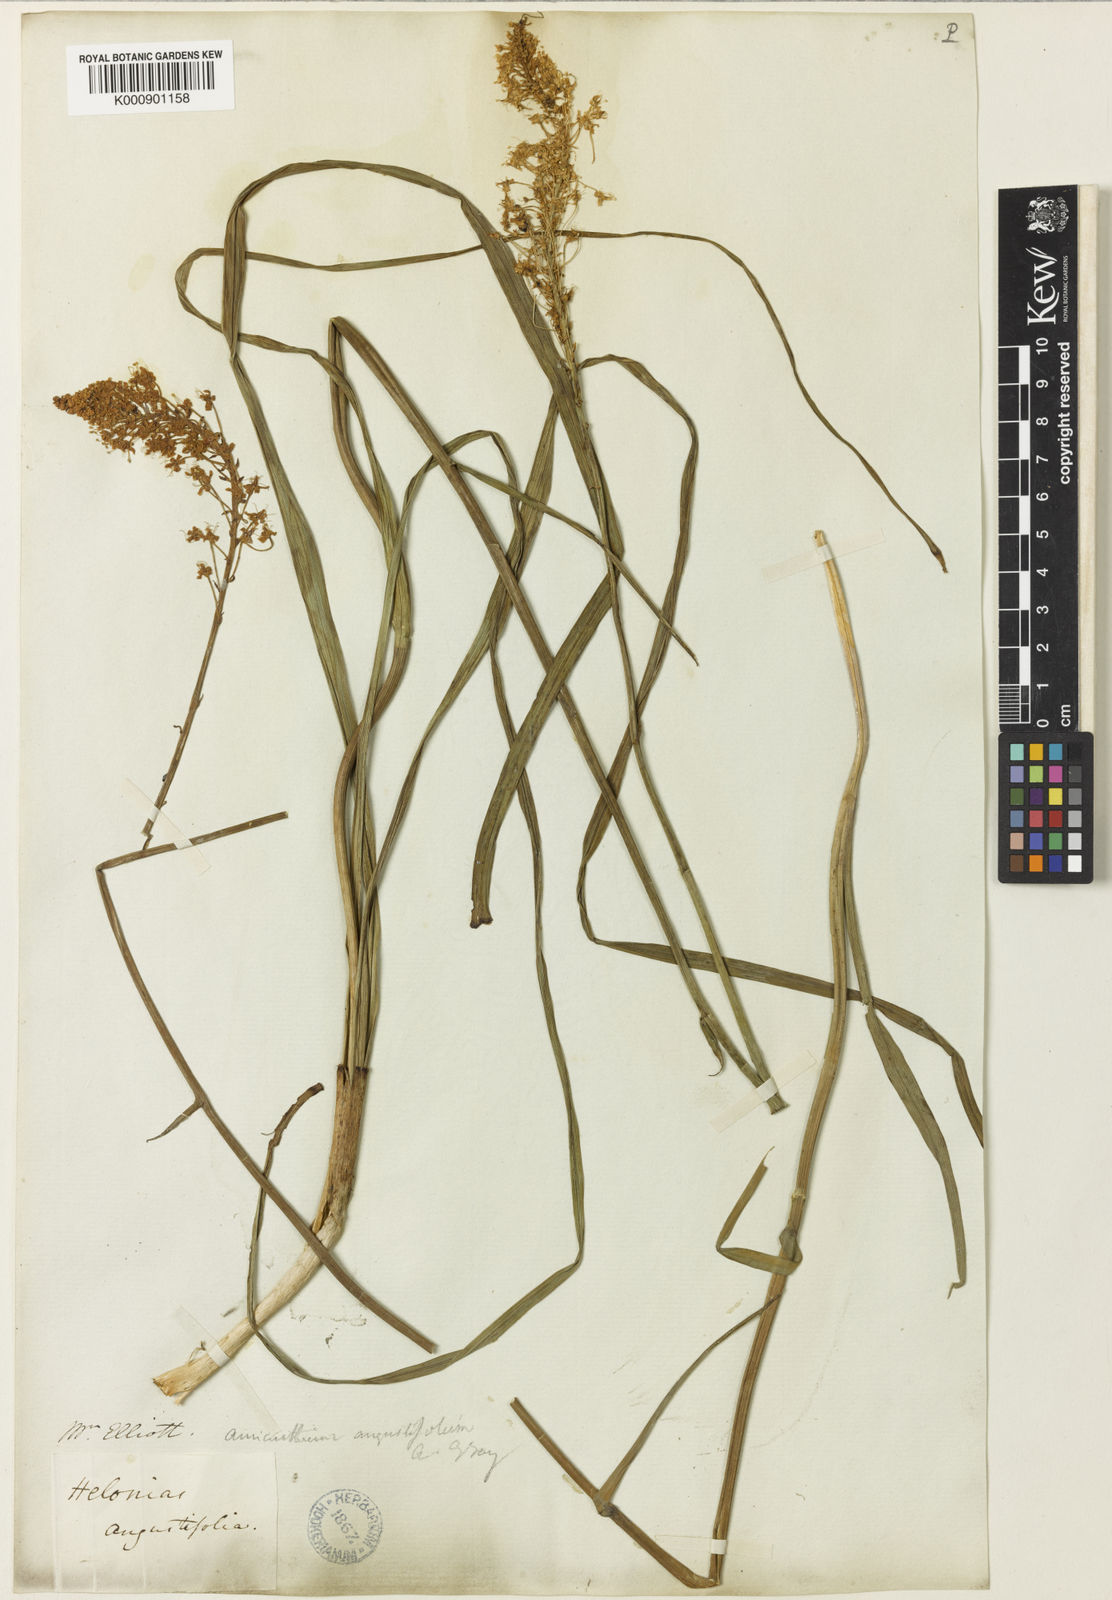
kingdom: Plantae
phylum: Tracheophyta
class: Liliopsida
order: Liliales
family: Melanthiaceae
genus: Stenanthium
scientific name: Stenanthium densum
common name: Crow-poison
